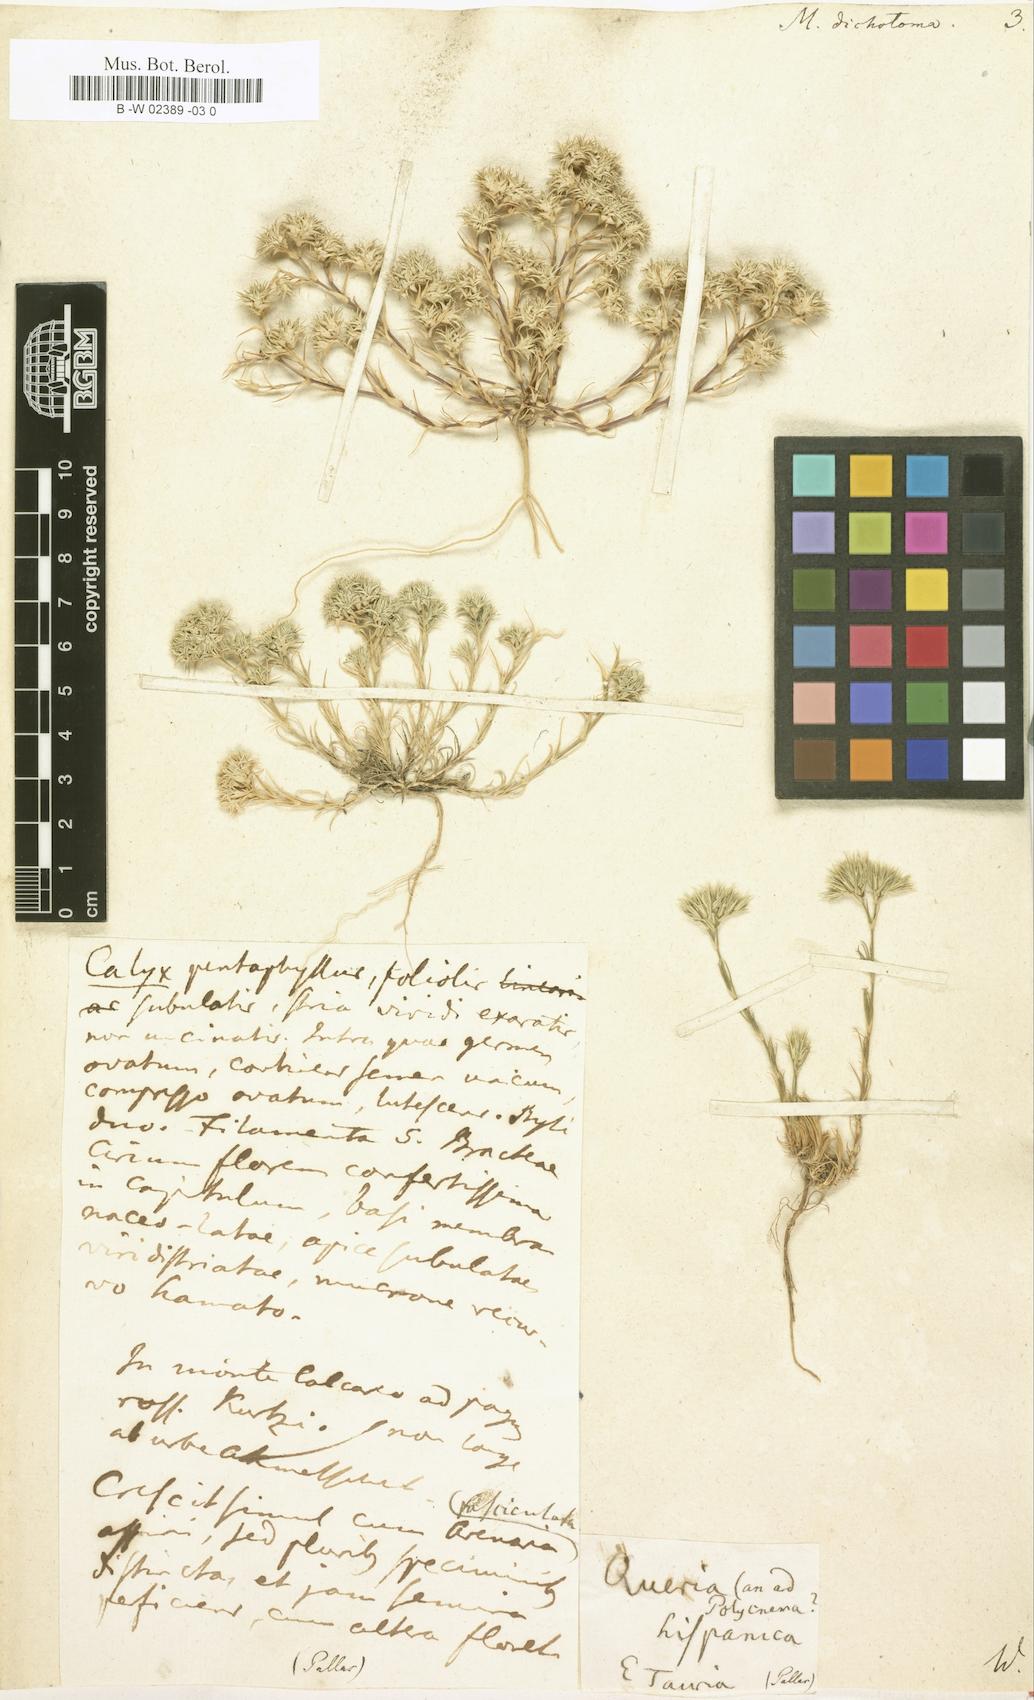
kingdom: Plantae
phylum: Tracheophyta
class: Magnoliopsida
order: Caryophyllales
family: Caryophyllaceae
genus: Minuartia
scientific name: Minuartia dichotoma
